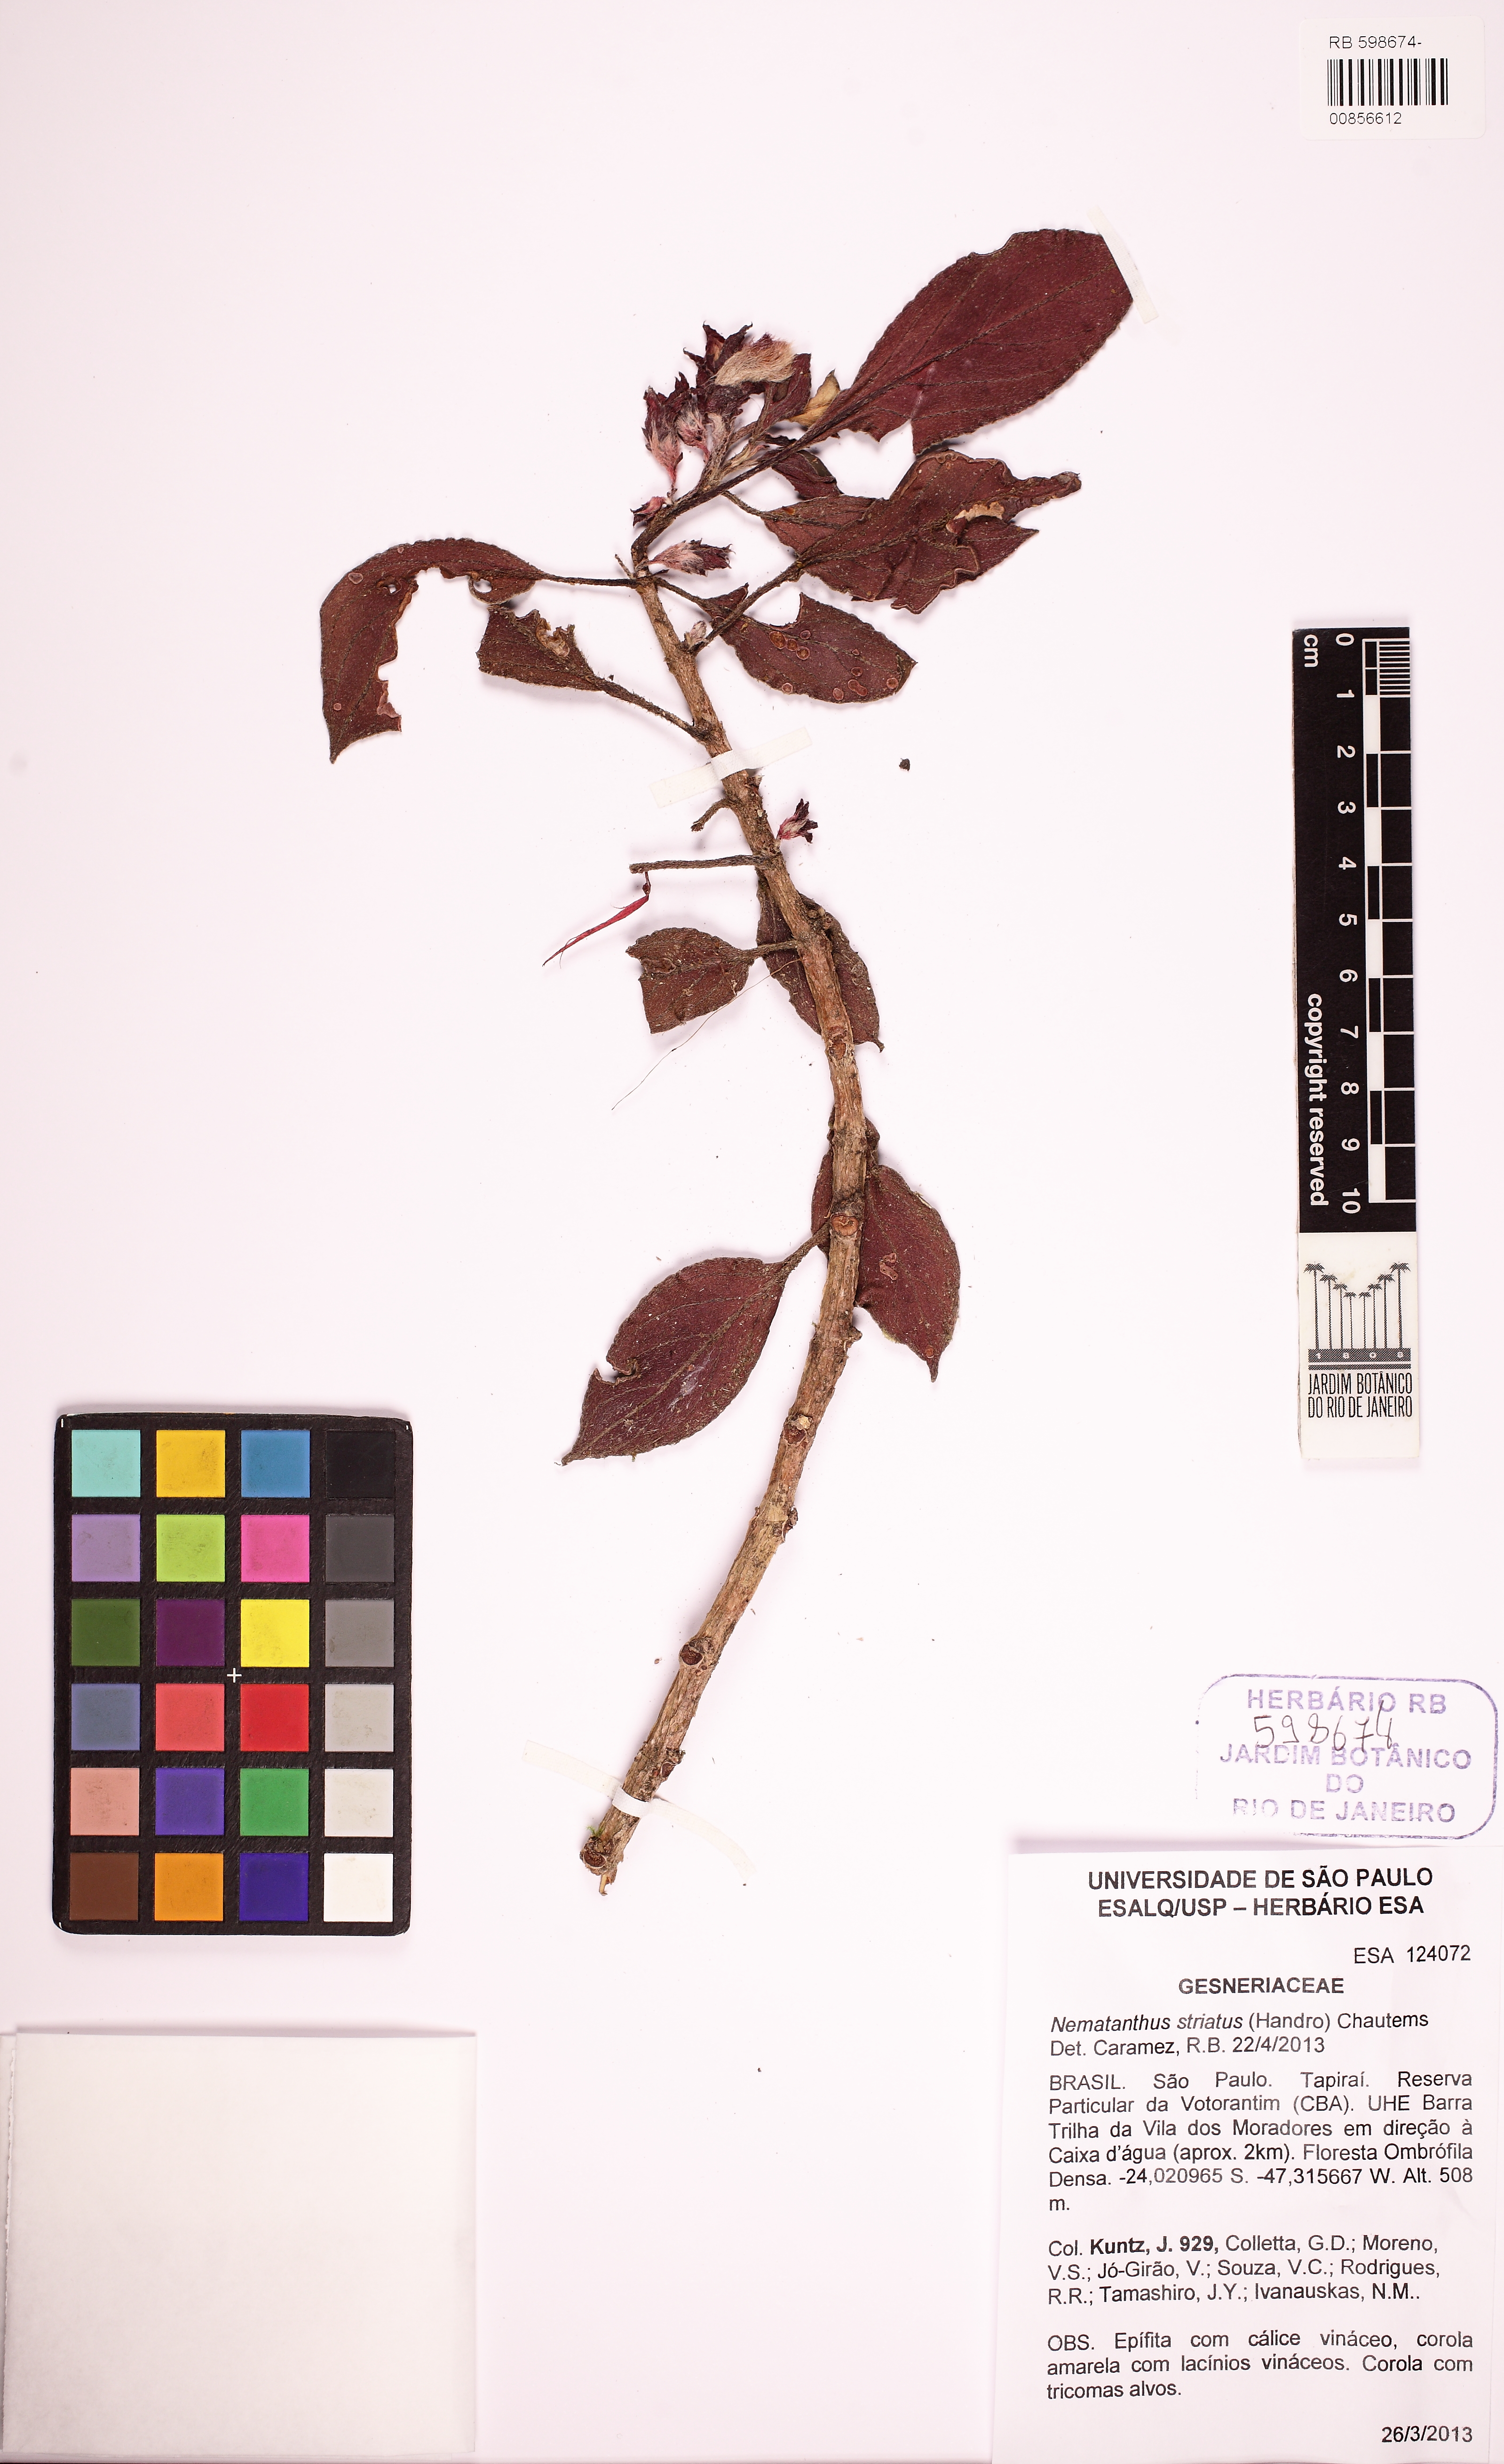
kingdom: Plantae
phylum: Tracheophyta
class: Magnoliopsida
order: Lamiales
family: Gesneriaceae
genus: Nematanthus
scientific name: Nematanthus striatus
